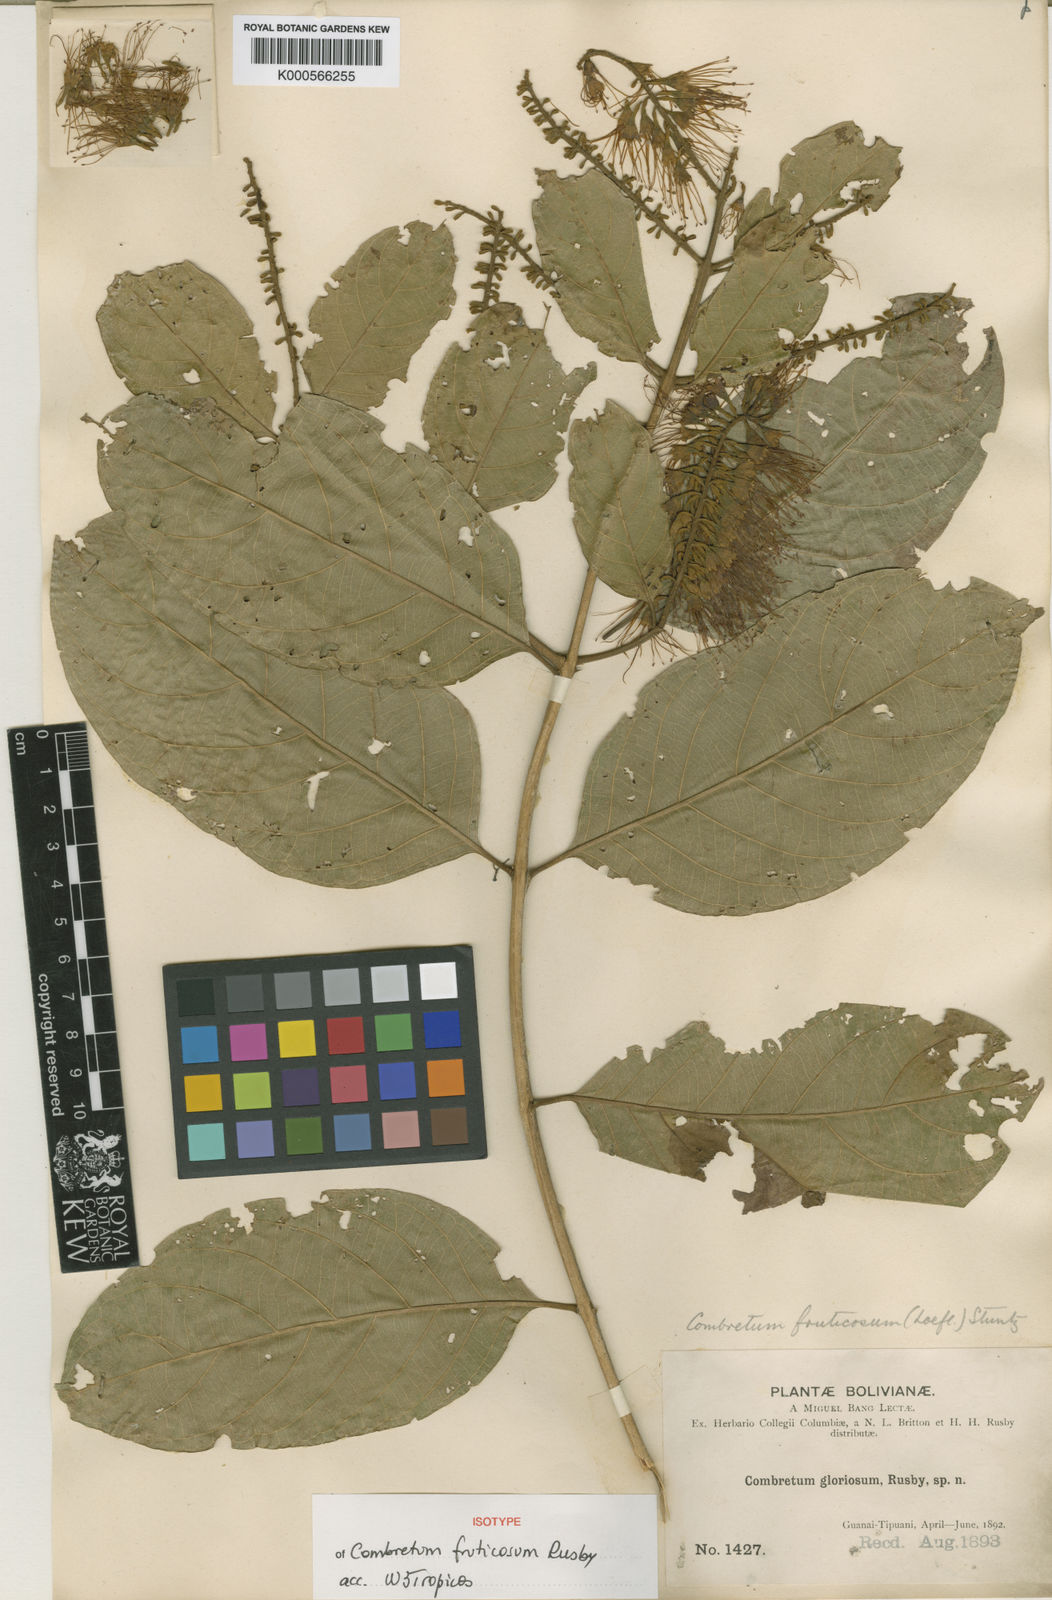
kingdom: Plantae
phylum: Tracheophyta
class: Magnoliopsida
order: Myrtales
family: Combretaceae
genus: Combretum
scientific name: Combretum fruticosum
